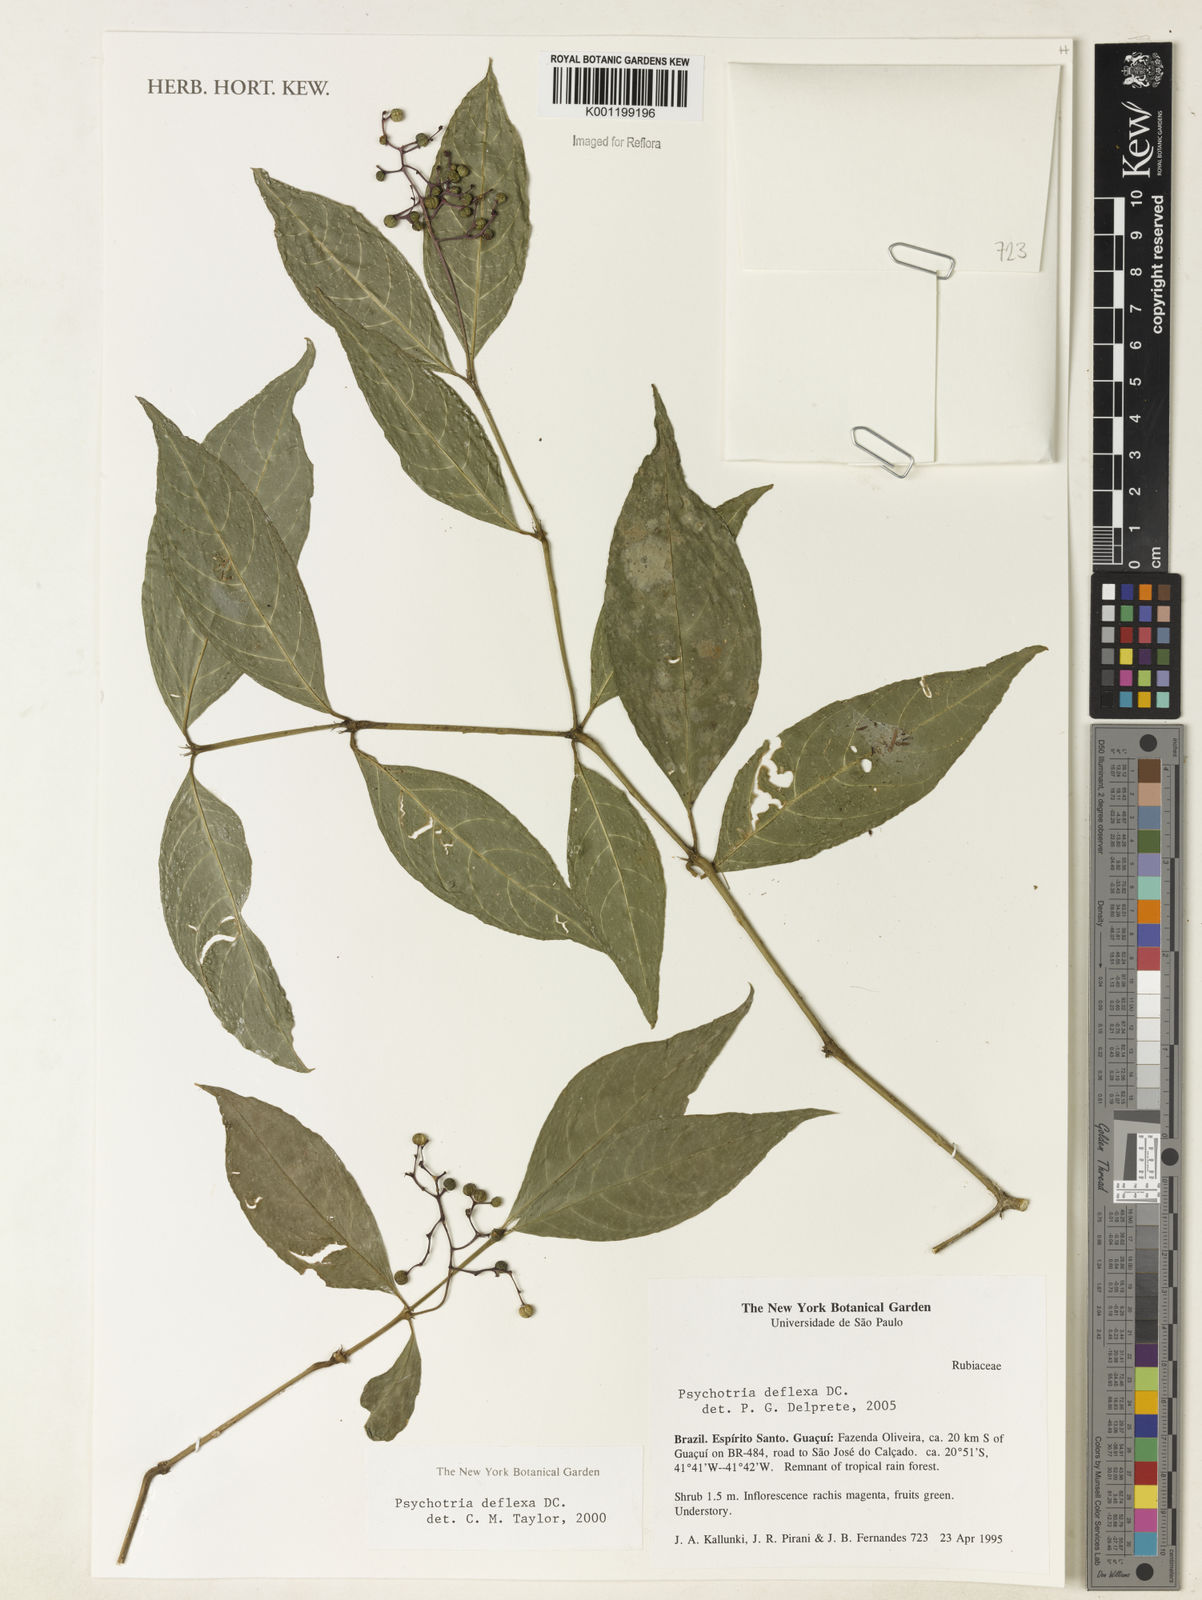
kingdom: Plantae
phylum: Tracheophyta
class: Magnoliopsida
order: Gentianales
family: Rubiaceae
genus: Palicourea
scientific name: Palicourea deflexa
